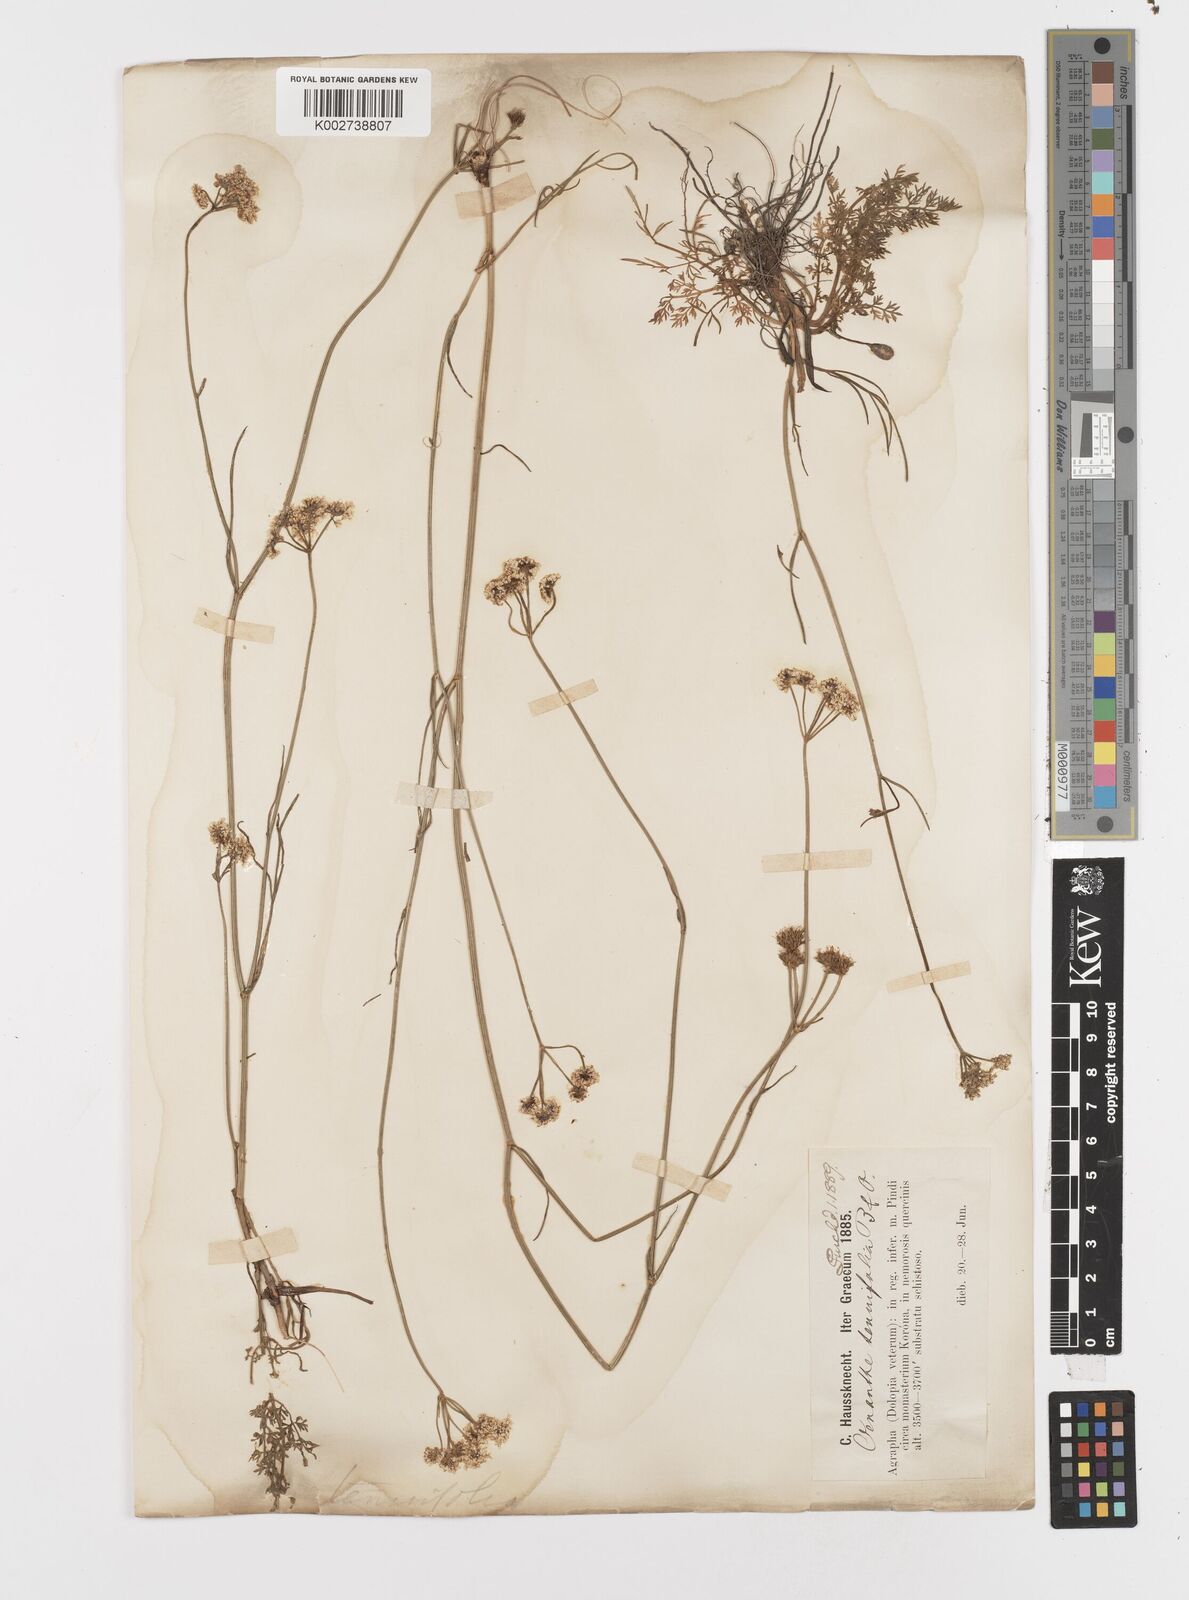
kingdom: Plantae
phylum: Tracheophyta
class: Magnoliopsida
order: Apiales
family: Apiaceae
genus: Oenanthe
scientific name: Oenanthe montis-khortiati
